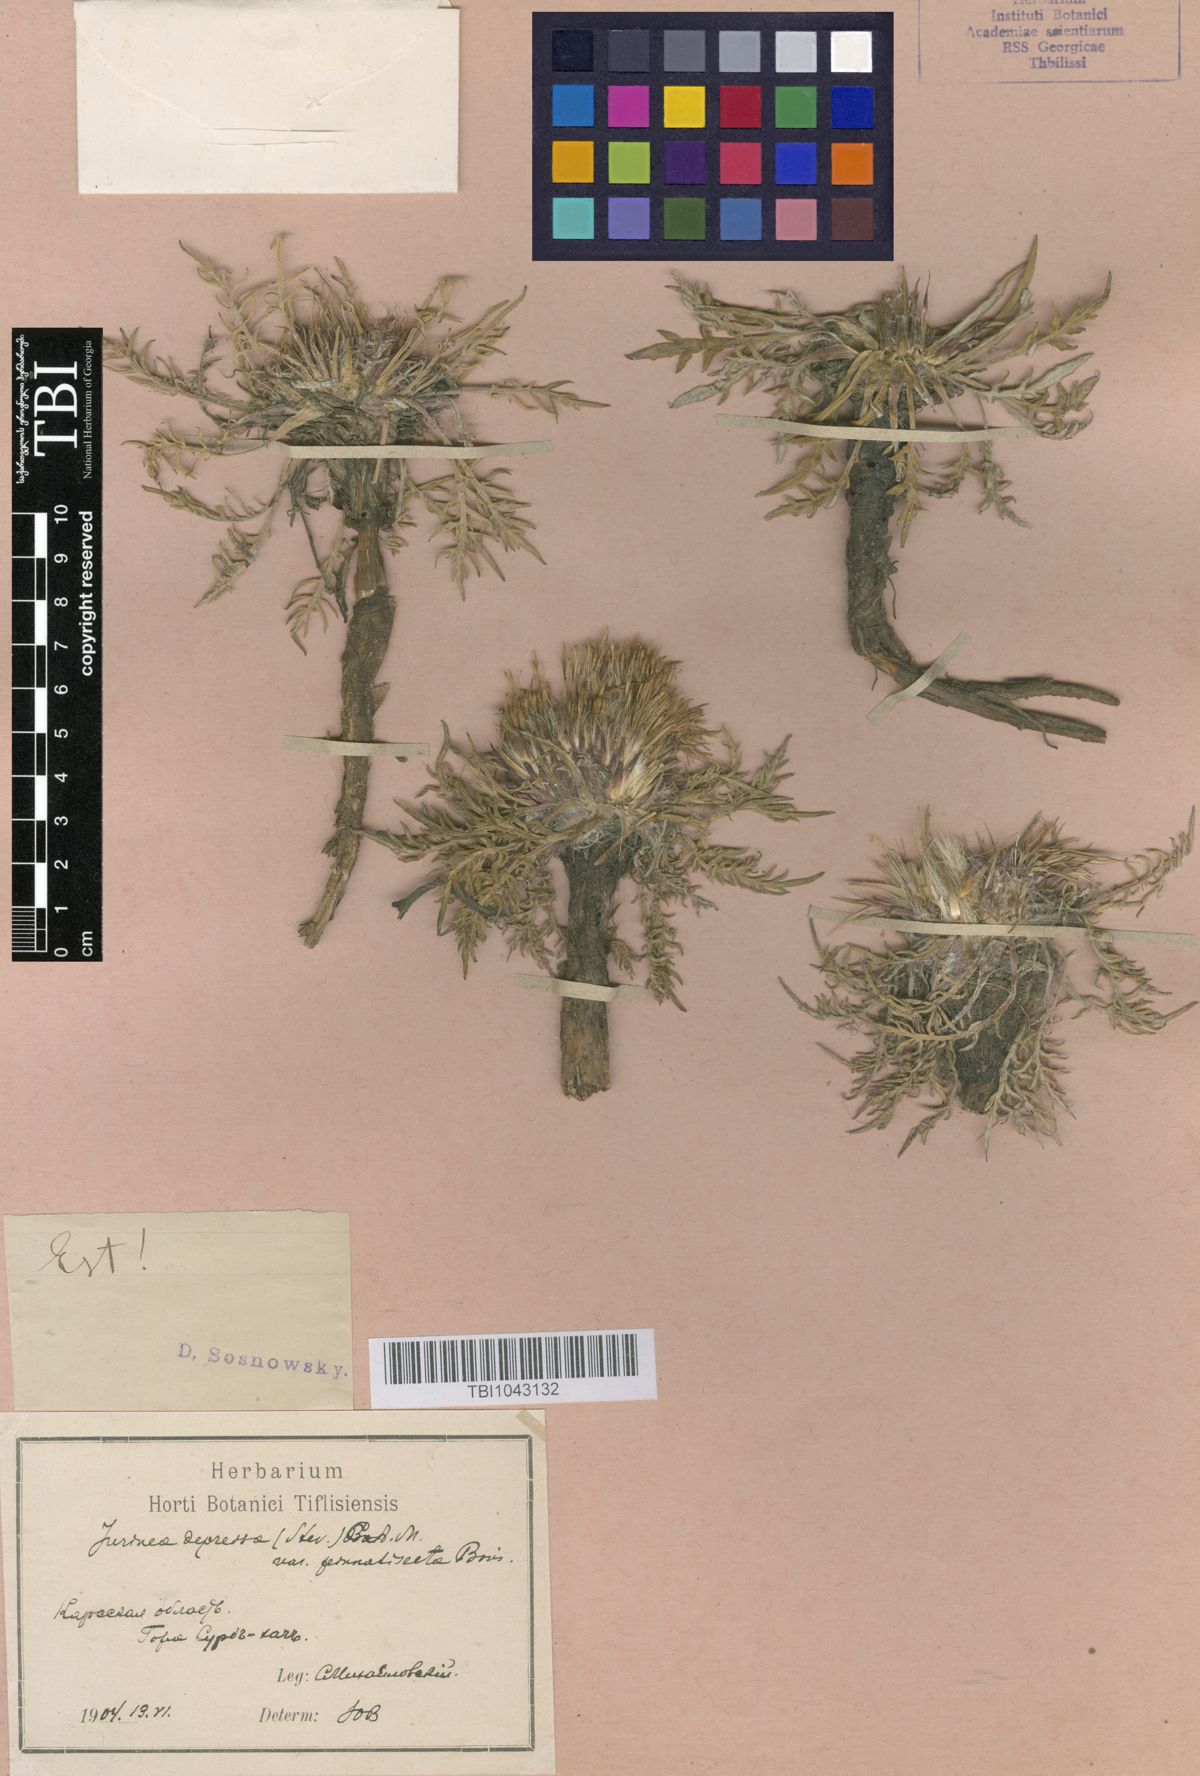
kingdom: Plantae
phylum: Tracheophyta
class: Magnoliopsida
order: Asterales
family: Asteraceae
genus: Jurinea
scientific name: Jurinea moschus
